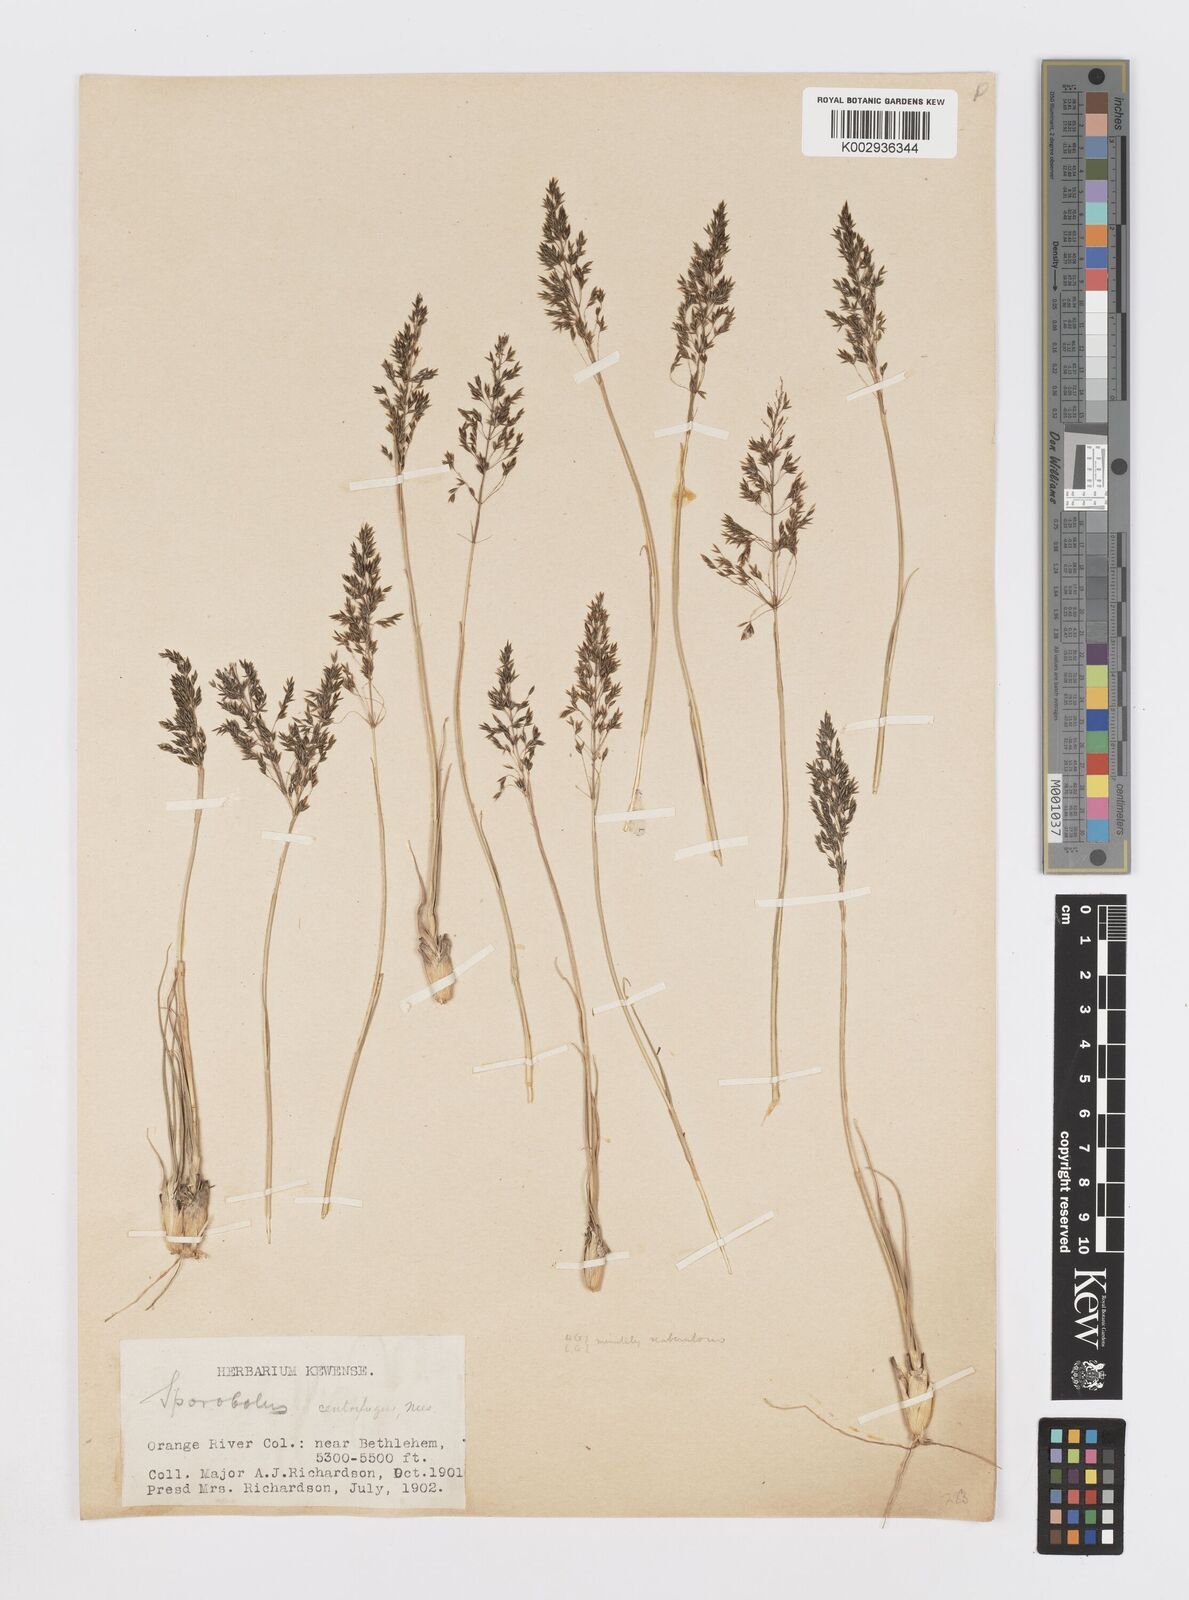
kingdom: Plantae
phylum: Tracheophyta
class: Liliopsida
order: Poales
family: Poaceae
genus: Sporobolus
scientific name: Sporobolus centrifugus
